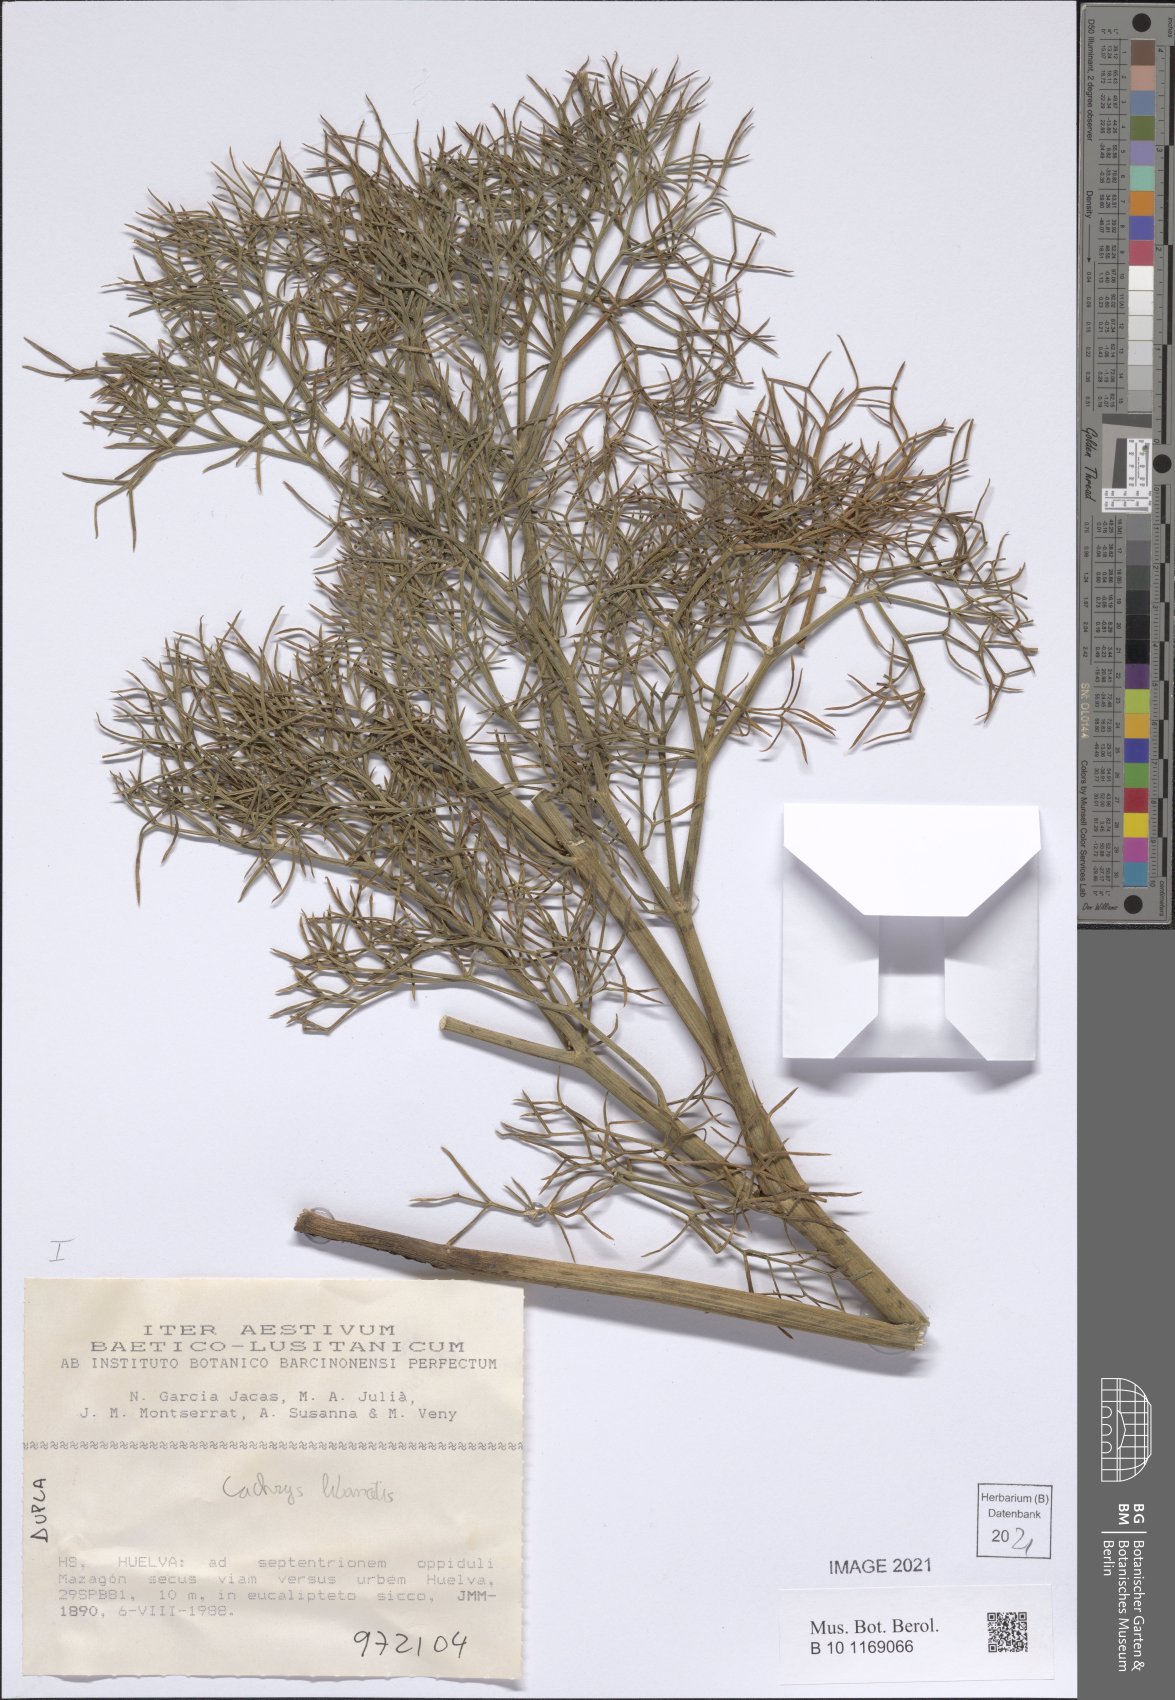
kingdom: Plantae
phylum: Tracheophyta
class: Magnoliopsida
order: Apiales
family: Apiaceae
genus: Cachrys
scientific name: Cachrys libanotis
